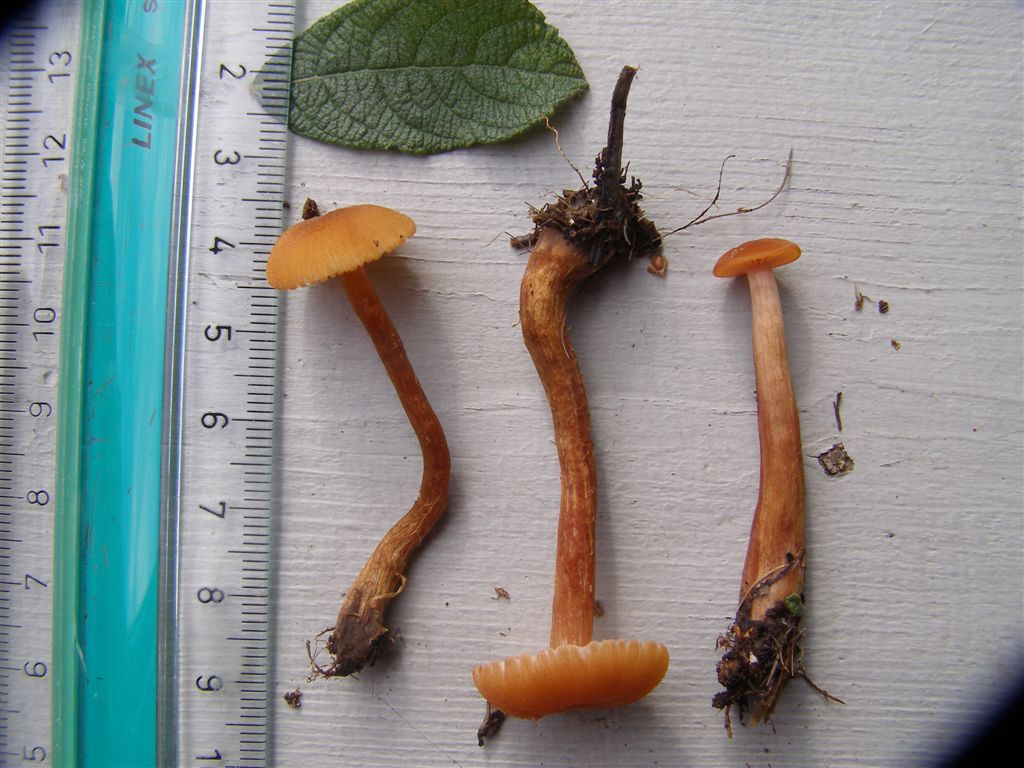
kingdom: Fungi
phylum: Basidiomycota
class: Agaricomycetes
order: Agaricales
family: Hydnangiaceae
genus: Laccaria
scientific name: Laccaria laccata
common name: rød ametysthat
